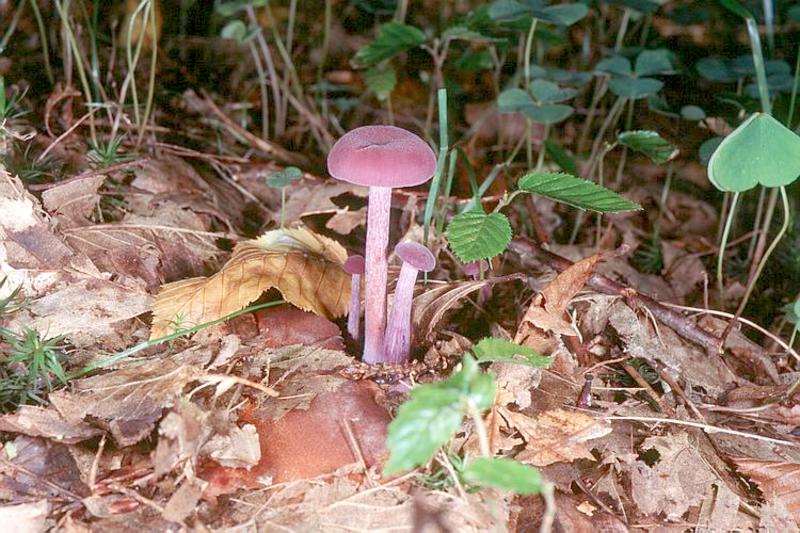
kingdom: Fungi
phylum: Basidiomycota
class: Agaricomycetes
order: Agaricales
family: Hydnangiaceae
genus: Laccaria
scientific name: Laccaria amethystina
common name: Amethyst deceiver
